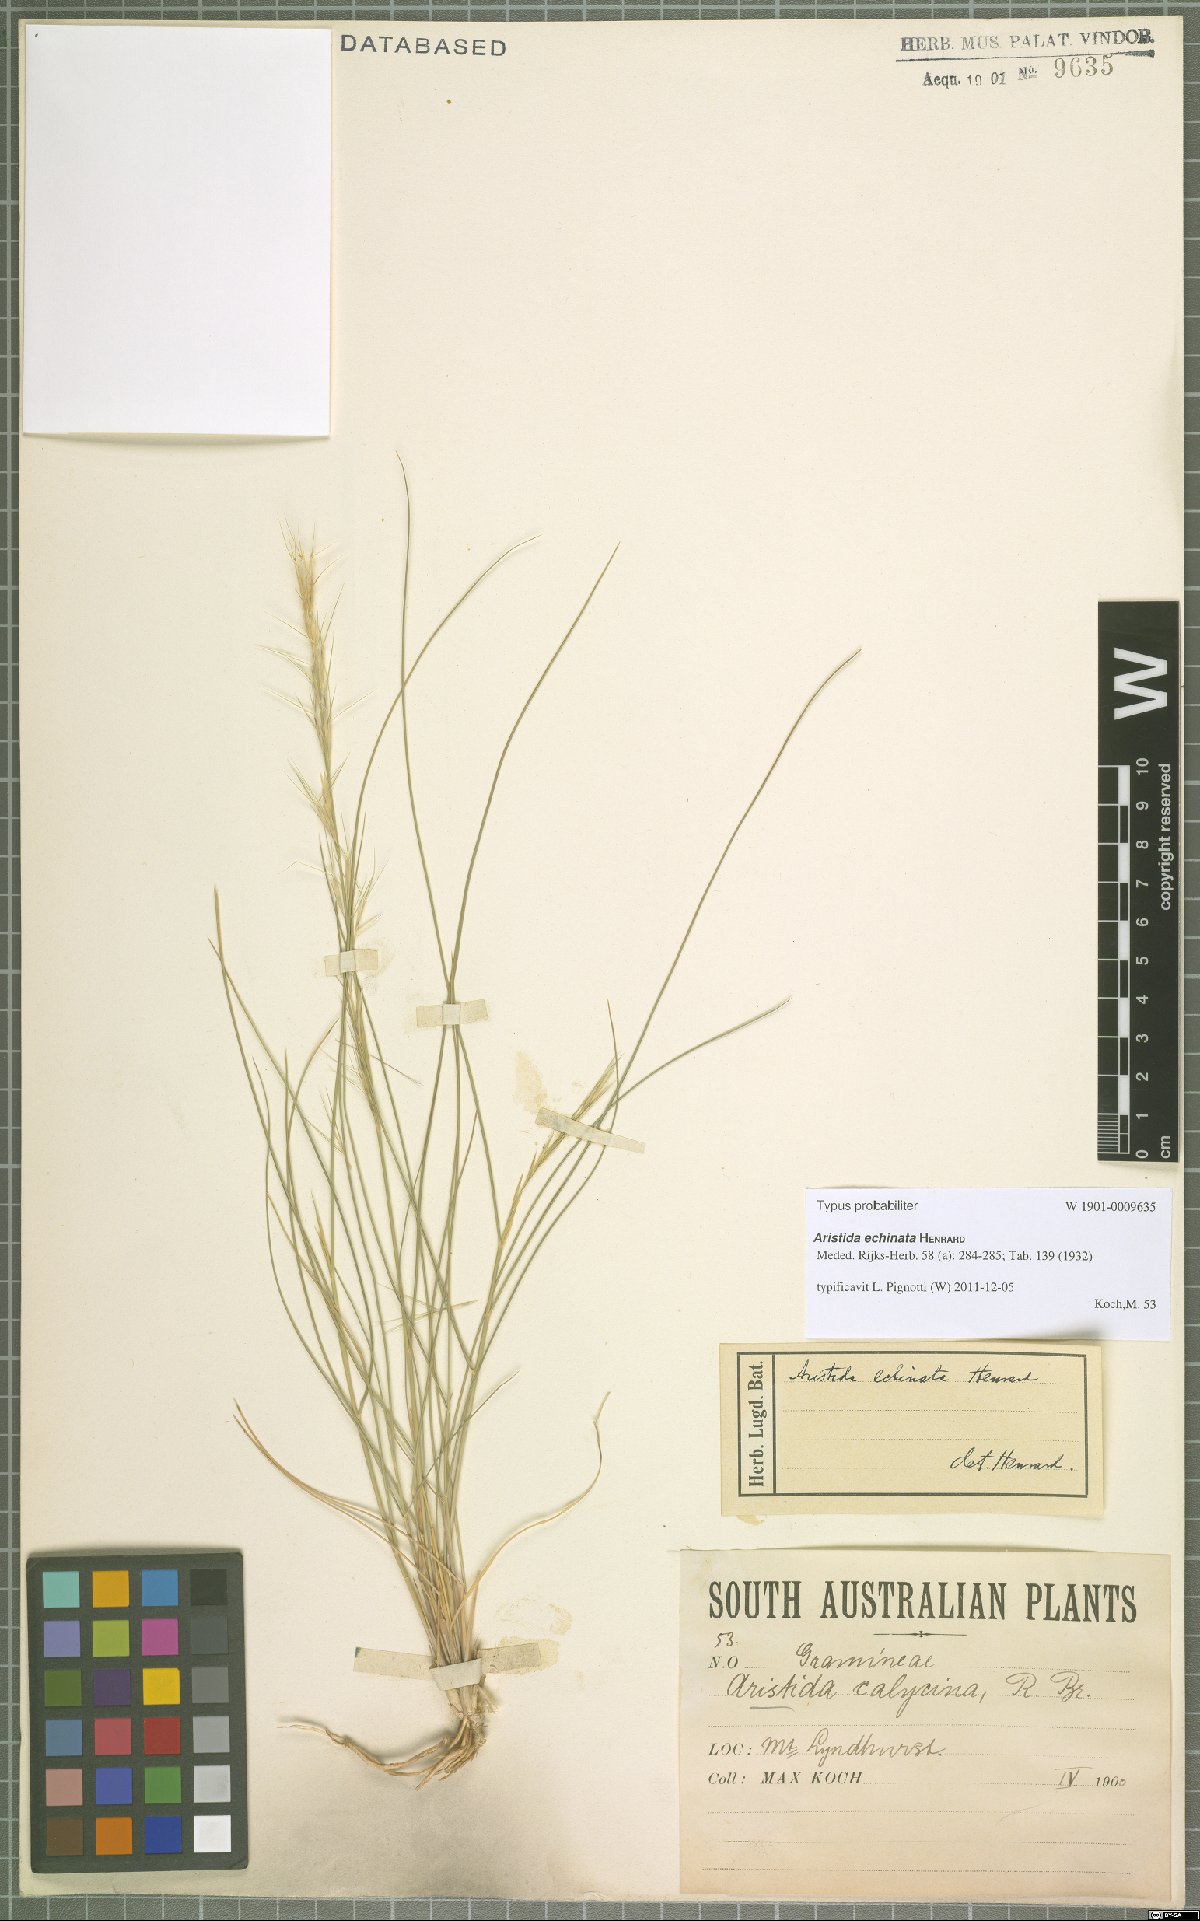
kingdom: Plantae
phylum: Tracheophyta
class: Liliopsida
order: Poales
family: Poaceae
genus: Aristida
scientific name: Aristida echinata
